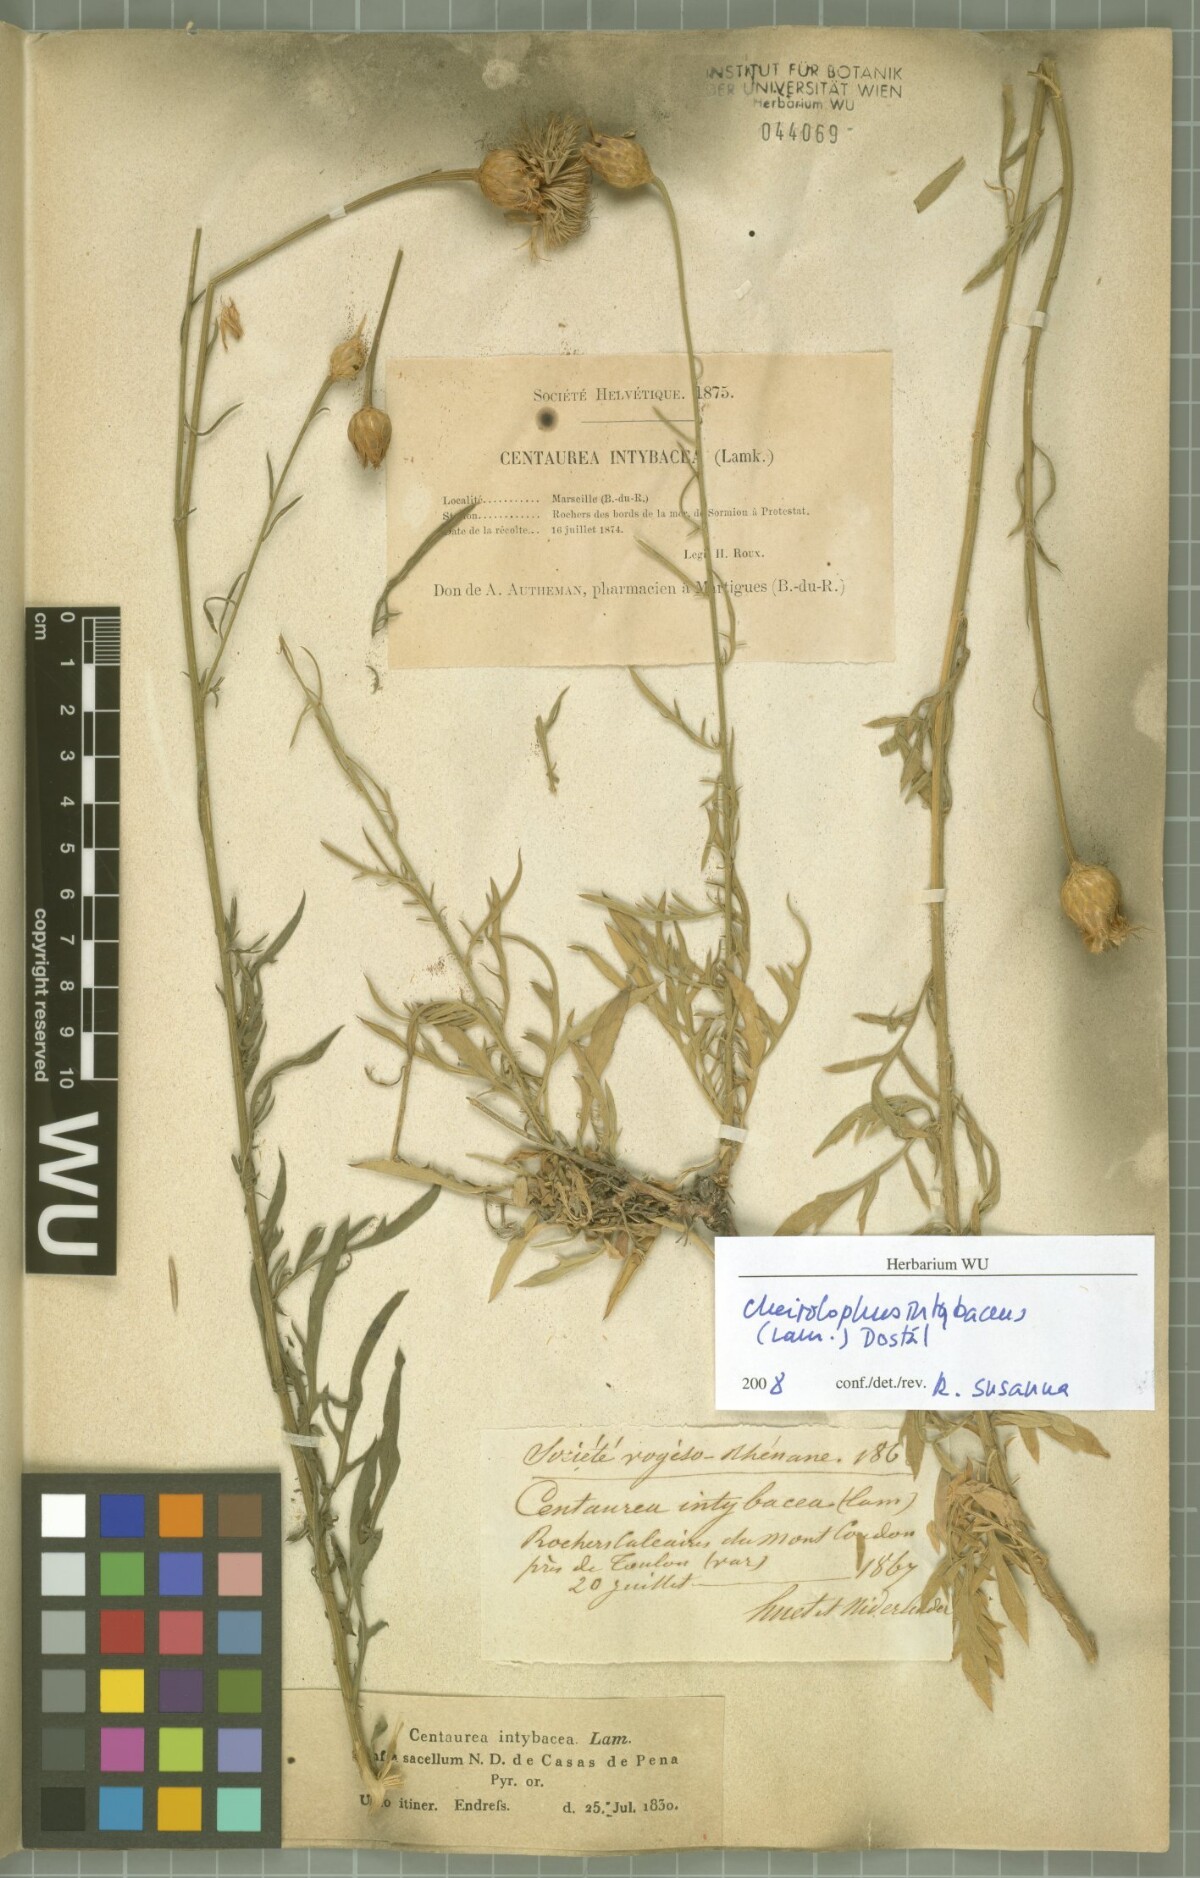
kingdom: Plantae
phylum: Tracheophyta
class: Magnoliopsida
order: Asterales
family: Asteraceae
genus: Cheirolophus
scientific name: Cheirolophus intybaceus
